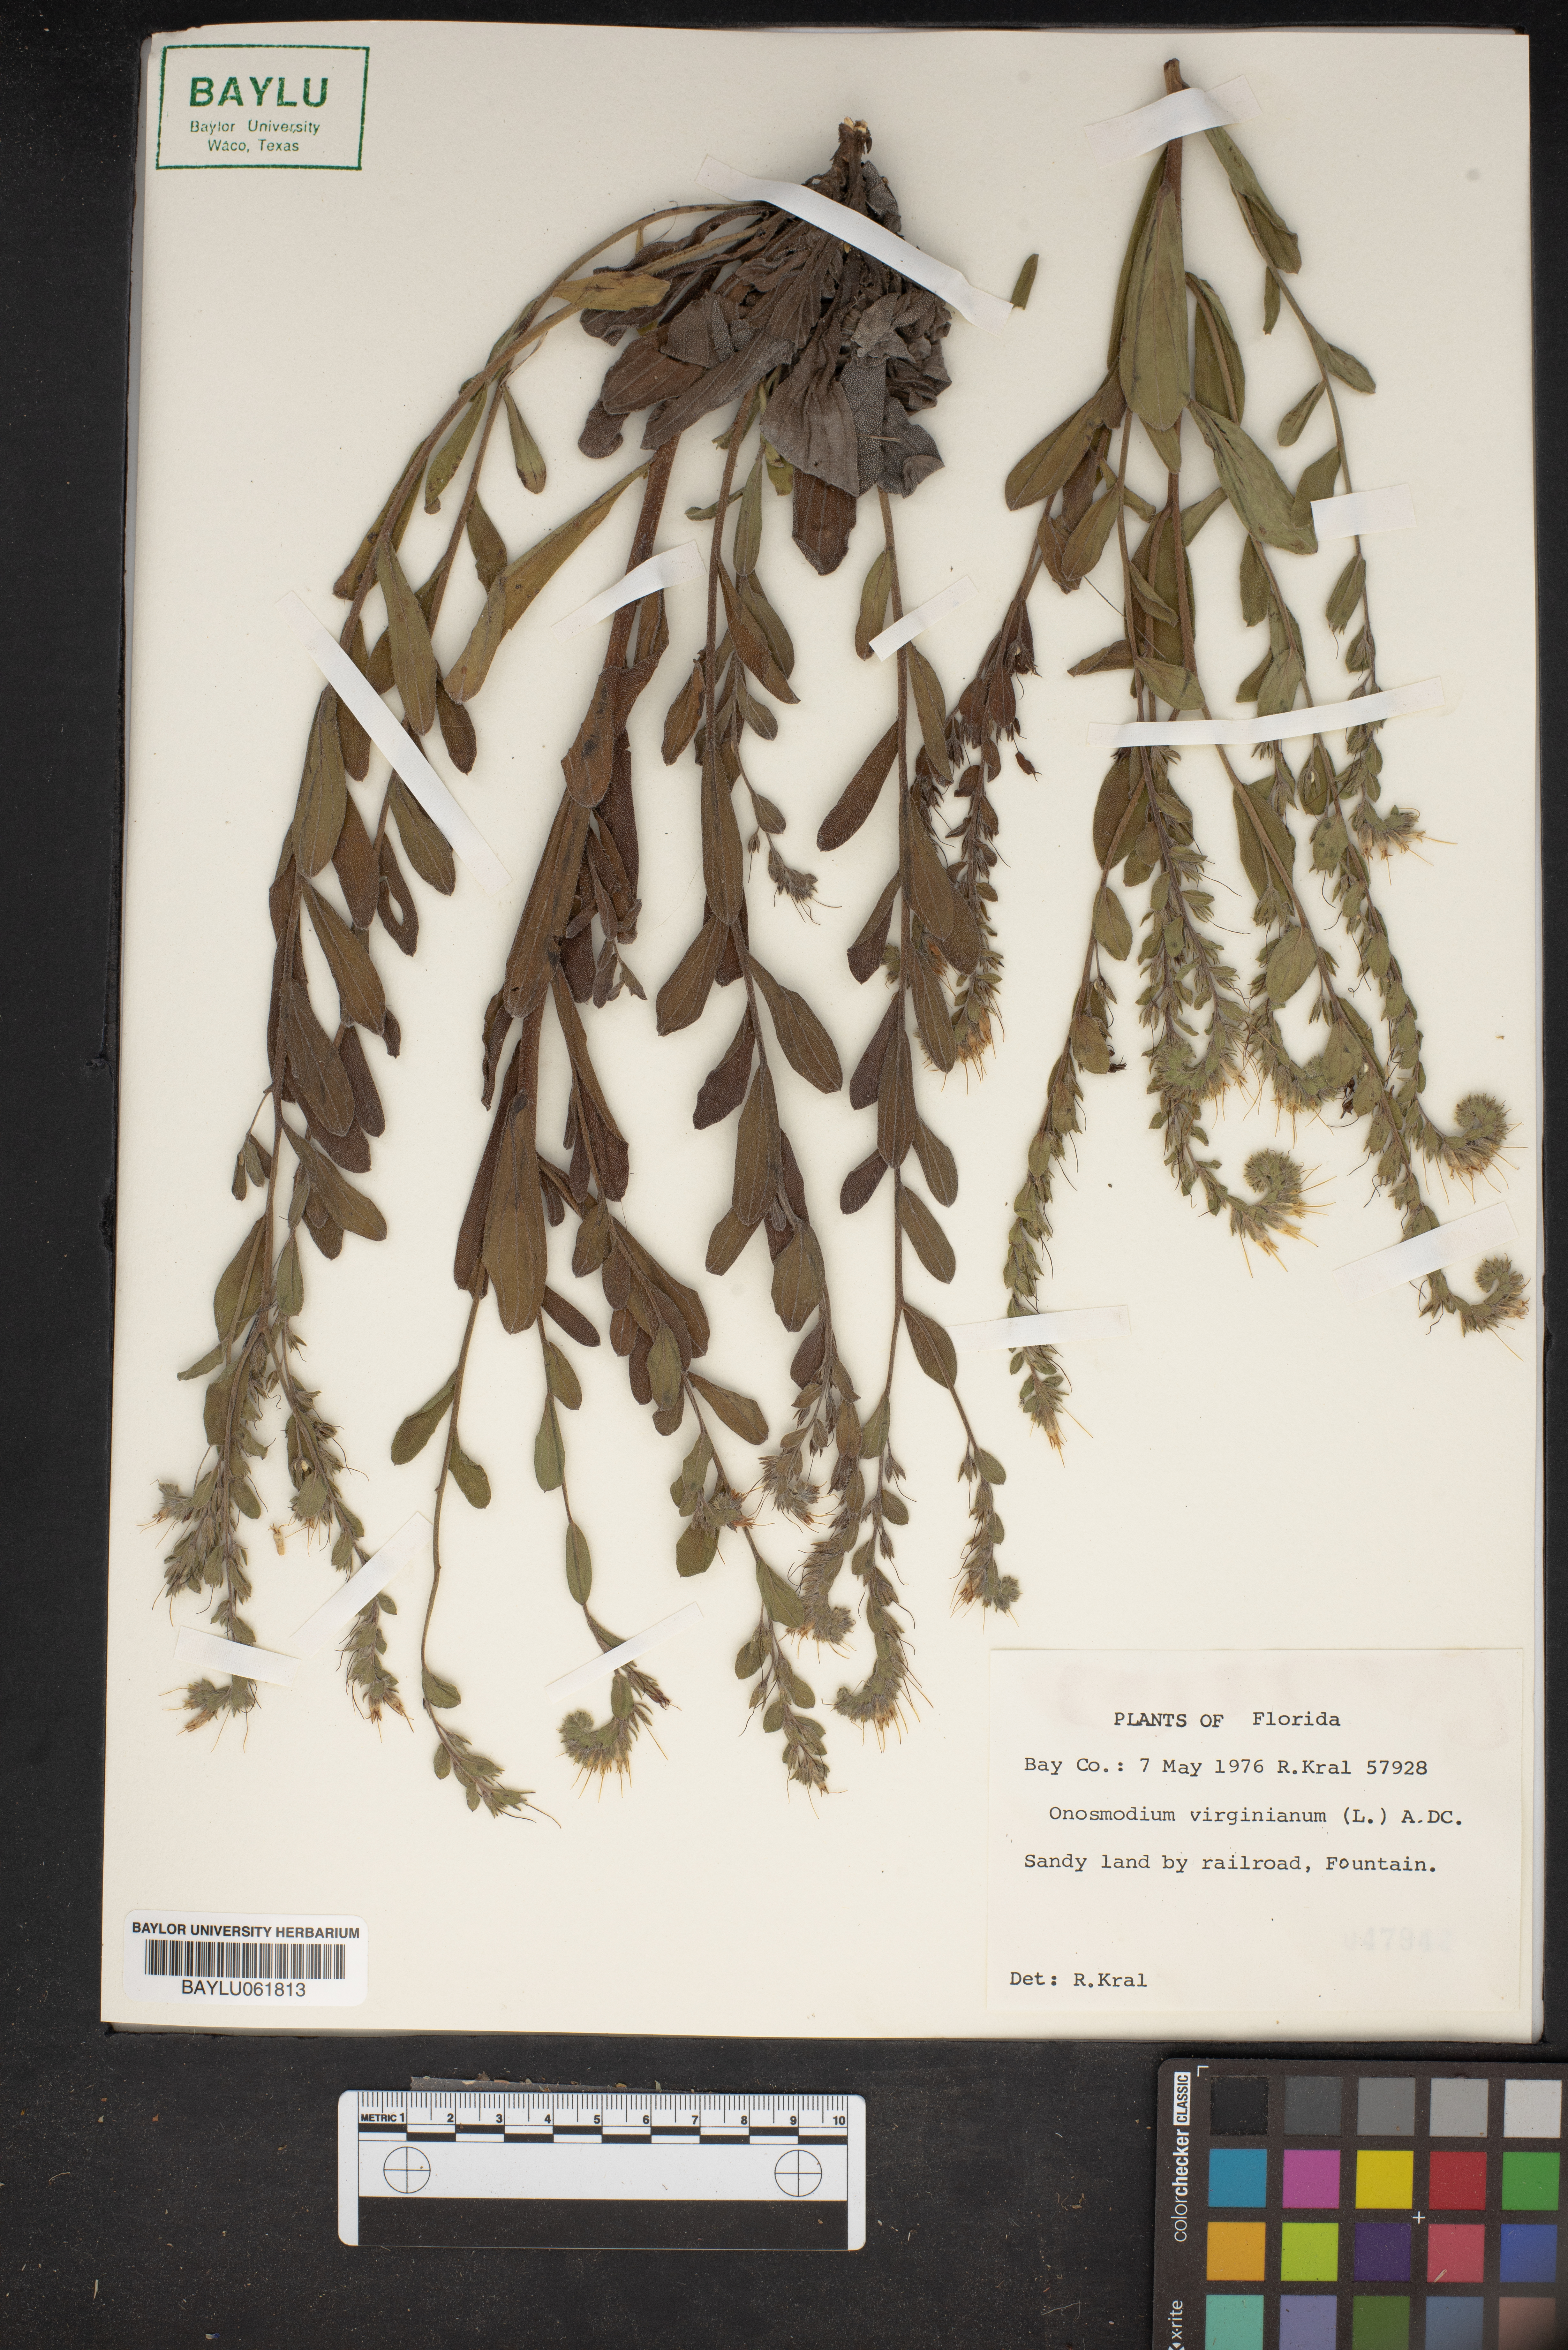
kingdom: Plantae
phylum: Tracheophyta
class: Magnoliopsida
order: Boraginales
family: Boraginaceae
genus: Lithospermum
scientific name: Lithospermum virginianum
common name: Eastern false gromwell
